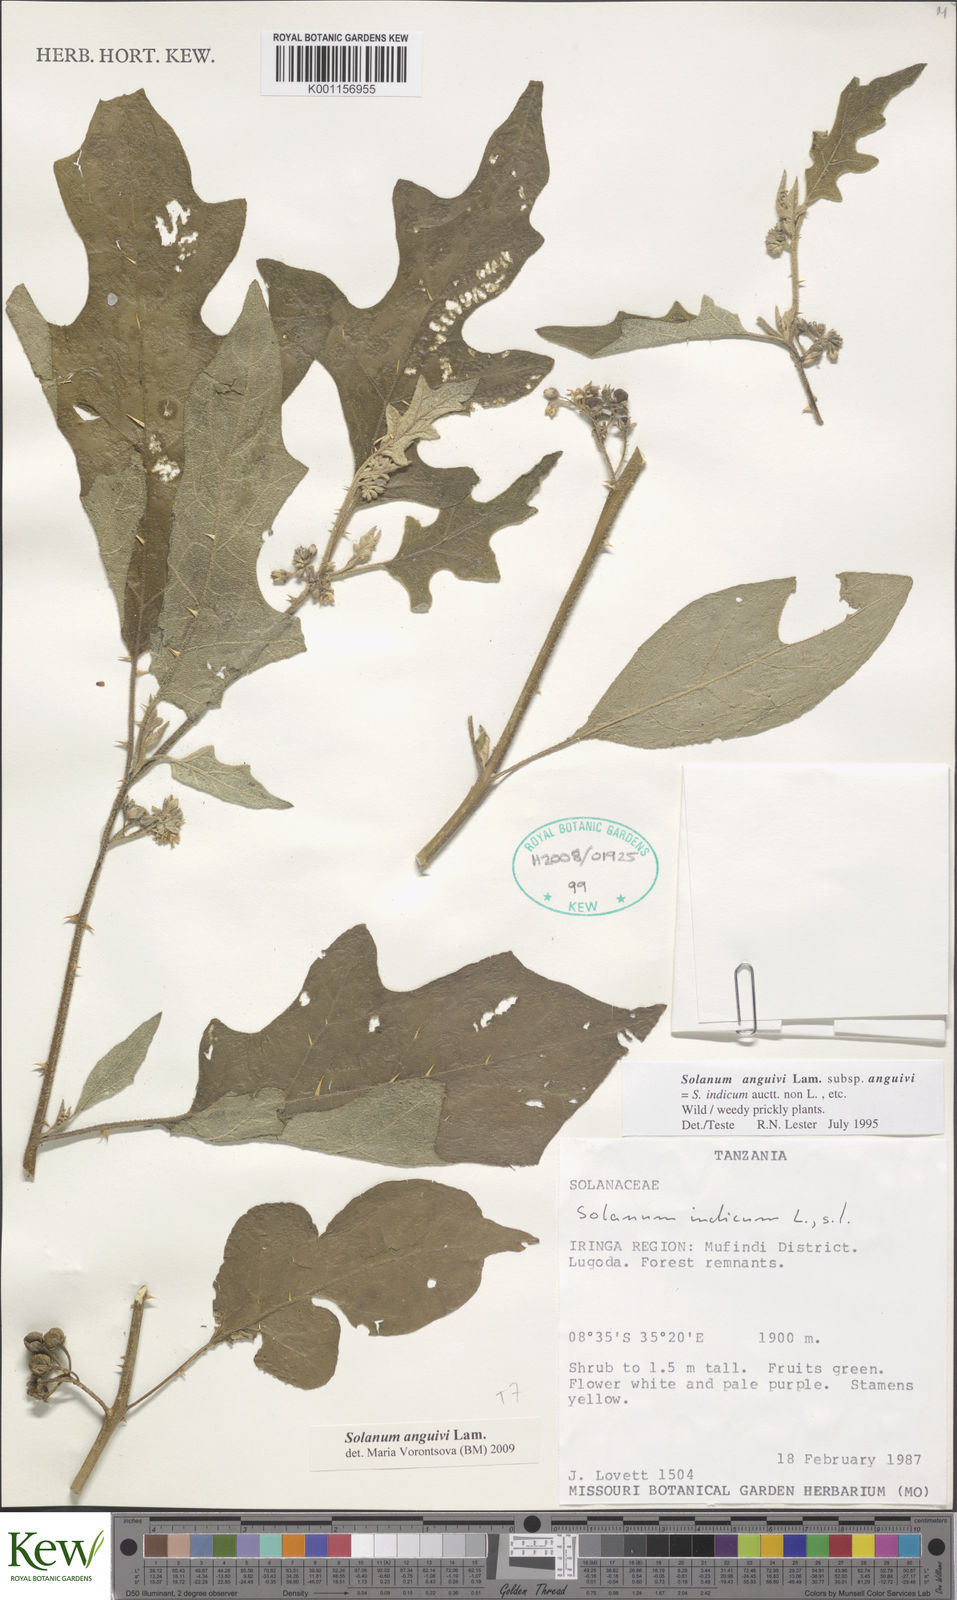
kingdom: Plantae
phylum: Tracheophyta
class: Magnoliopsida
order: Solanales
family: Solanaceae
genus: Solanum
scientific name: Solanum anguivi
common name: Forest bitterberry
